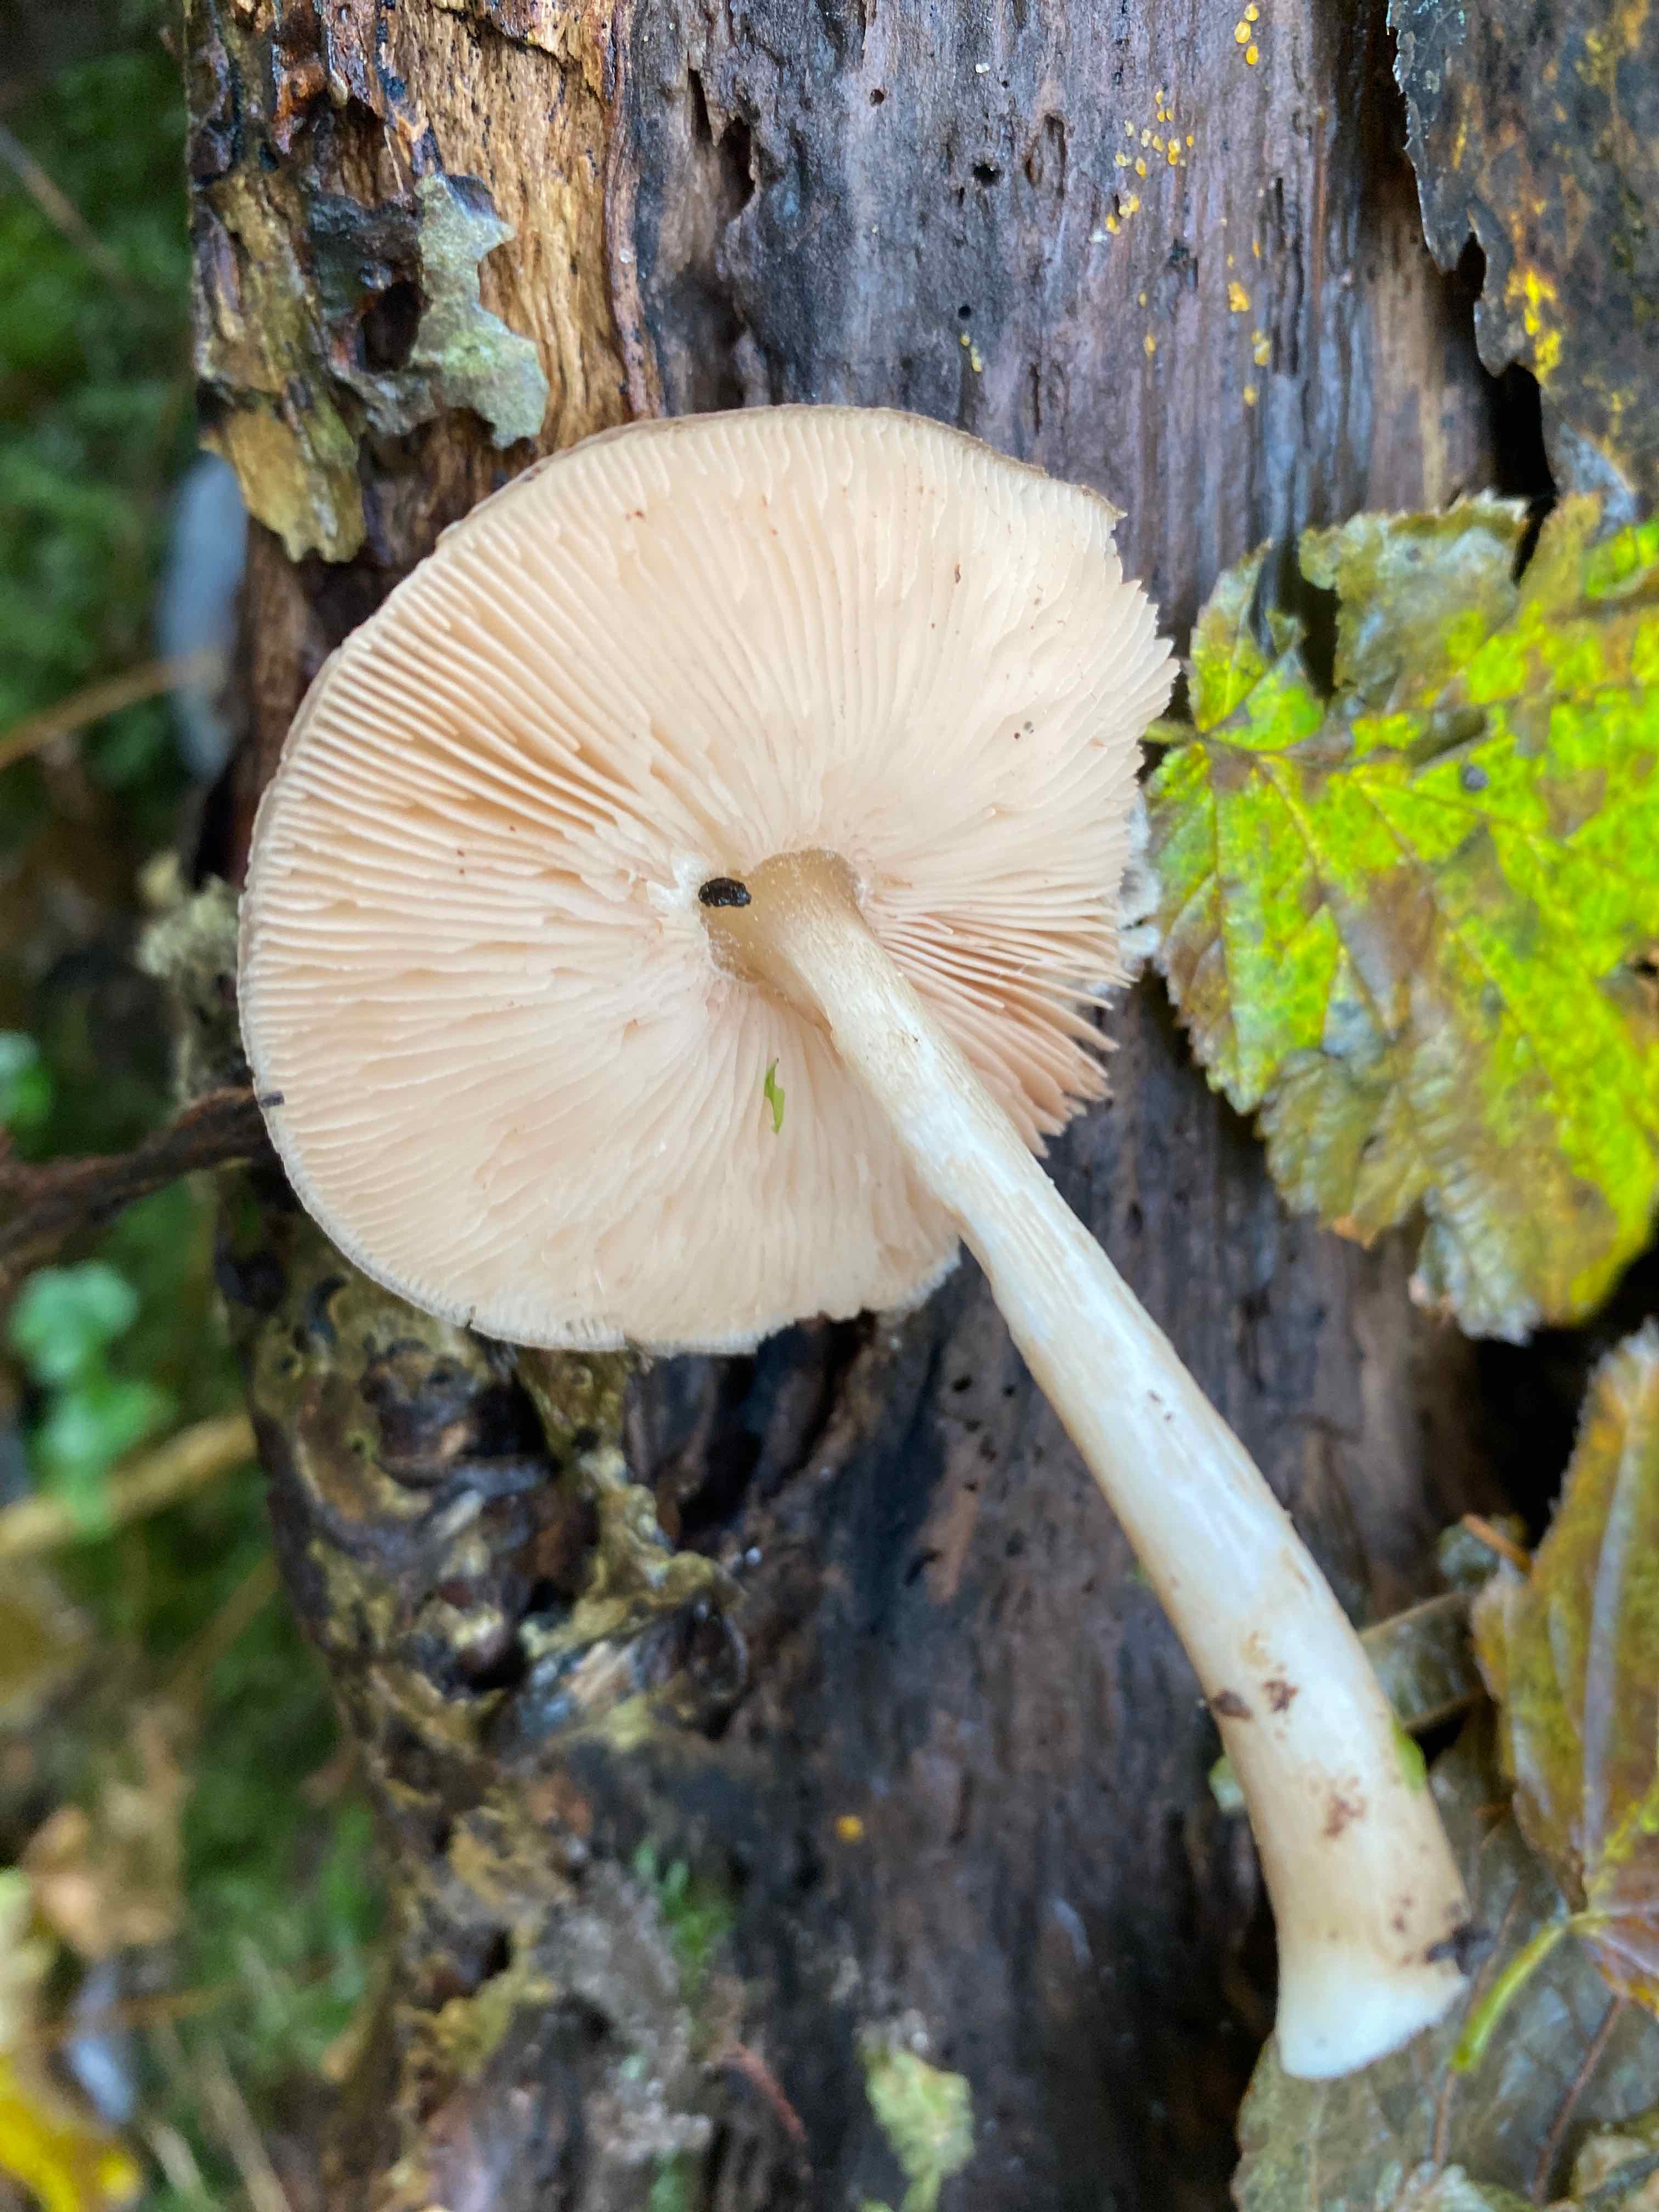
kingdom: Fungi
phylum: Basidiomycota
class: Agaricomycetes
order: Agaricales
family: Pluteaceae
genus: Pluteus
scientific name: Pluteus cervinus
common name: sodfarvet skærmhat
